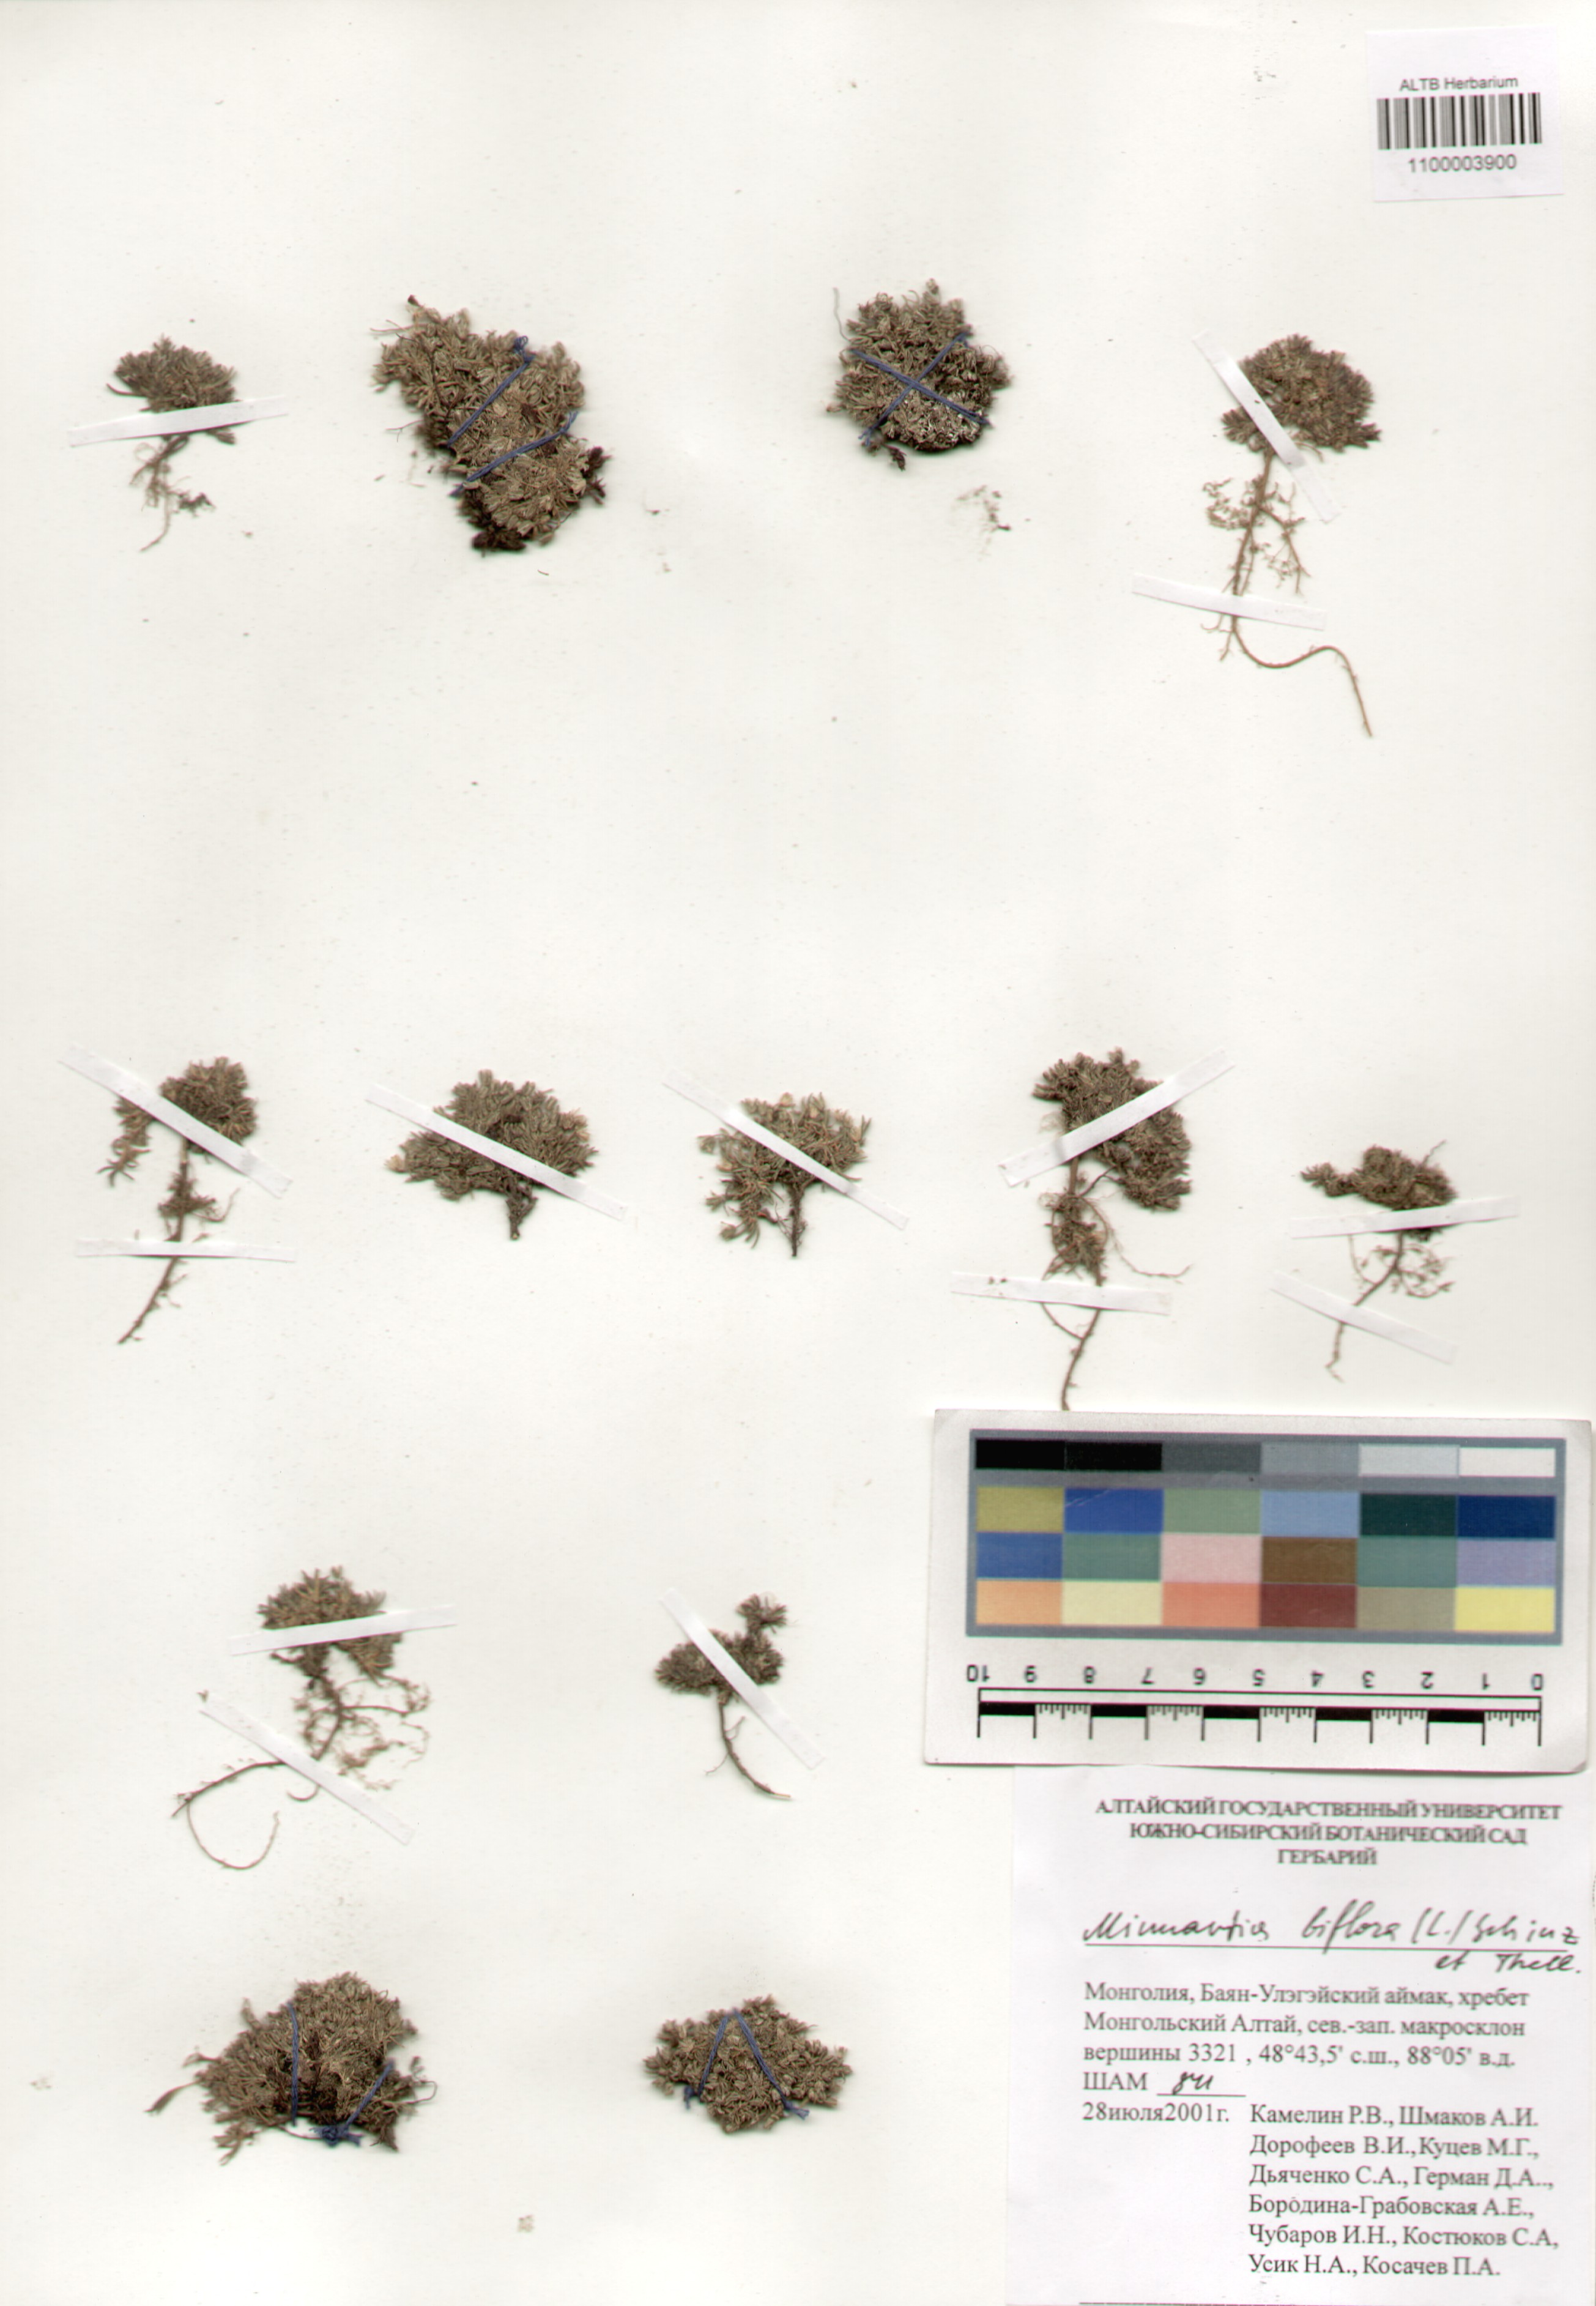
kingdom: Plantae
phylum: Tracheophyta
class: Magnoliopsida
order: Caryophyllales
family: Caryophyllaceae
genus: Cherleria
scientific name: Cherleria biflora
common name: Mountain sandwort
